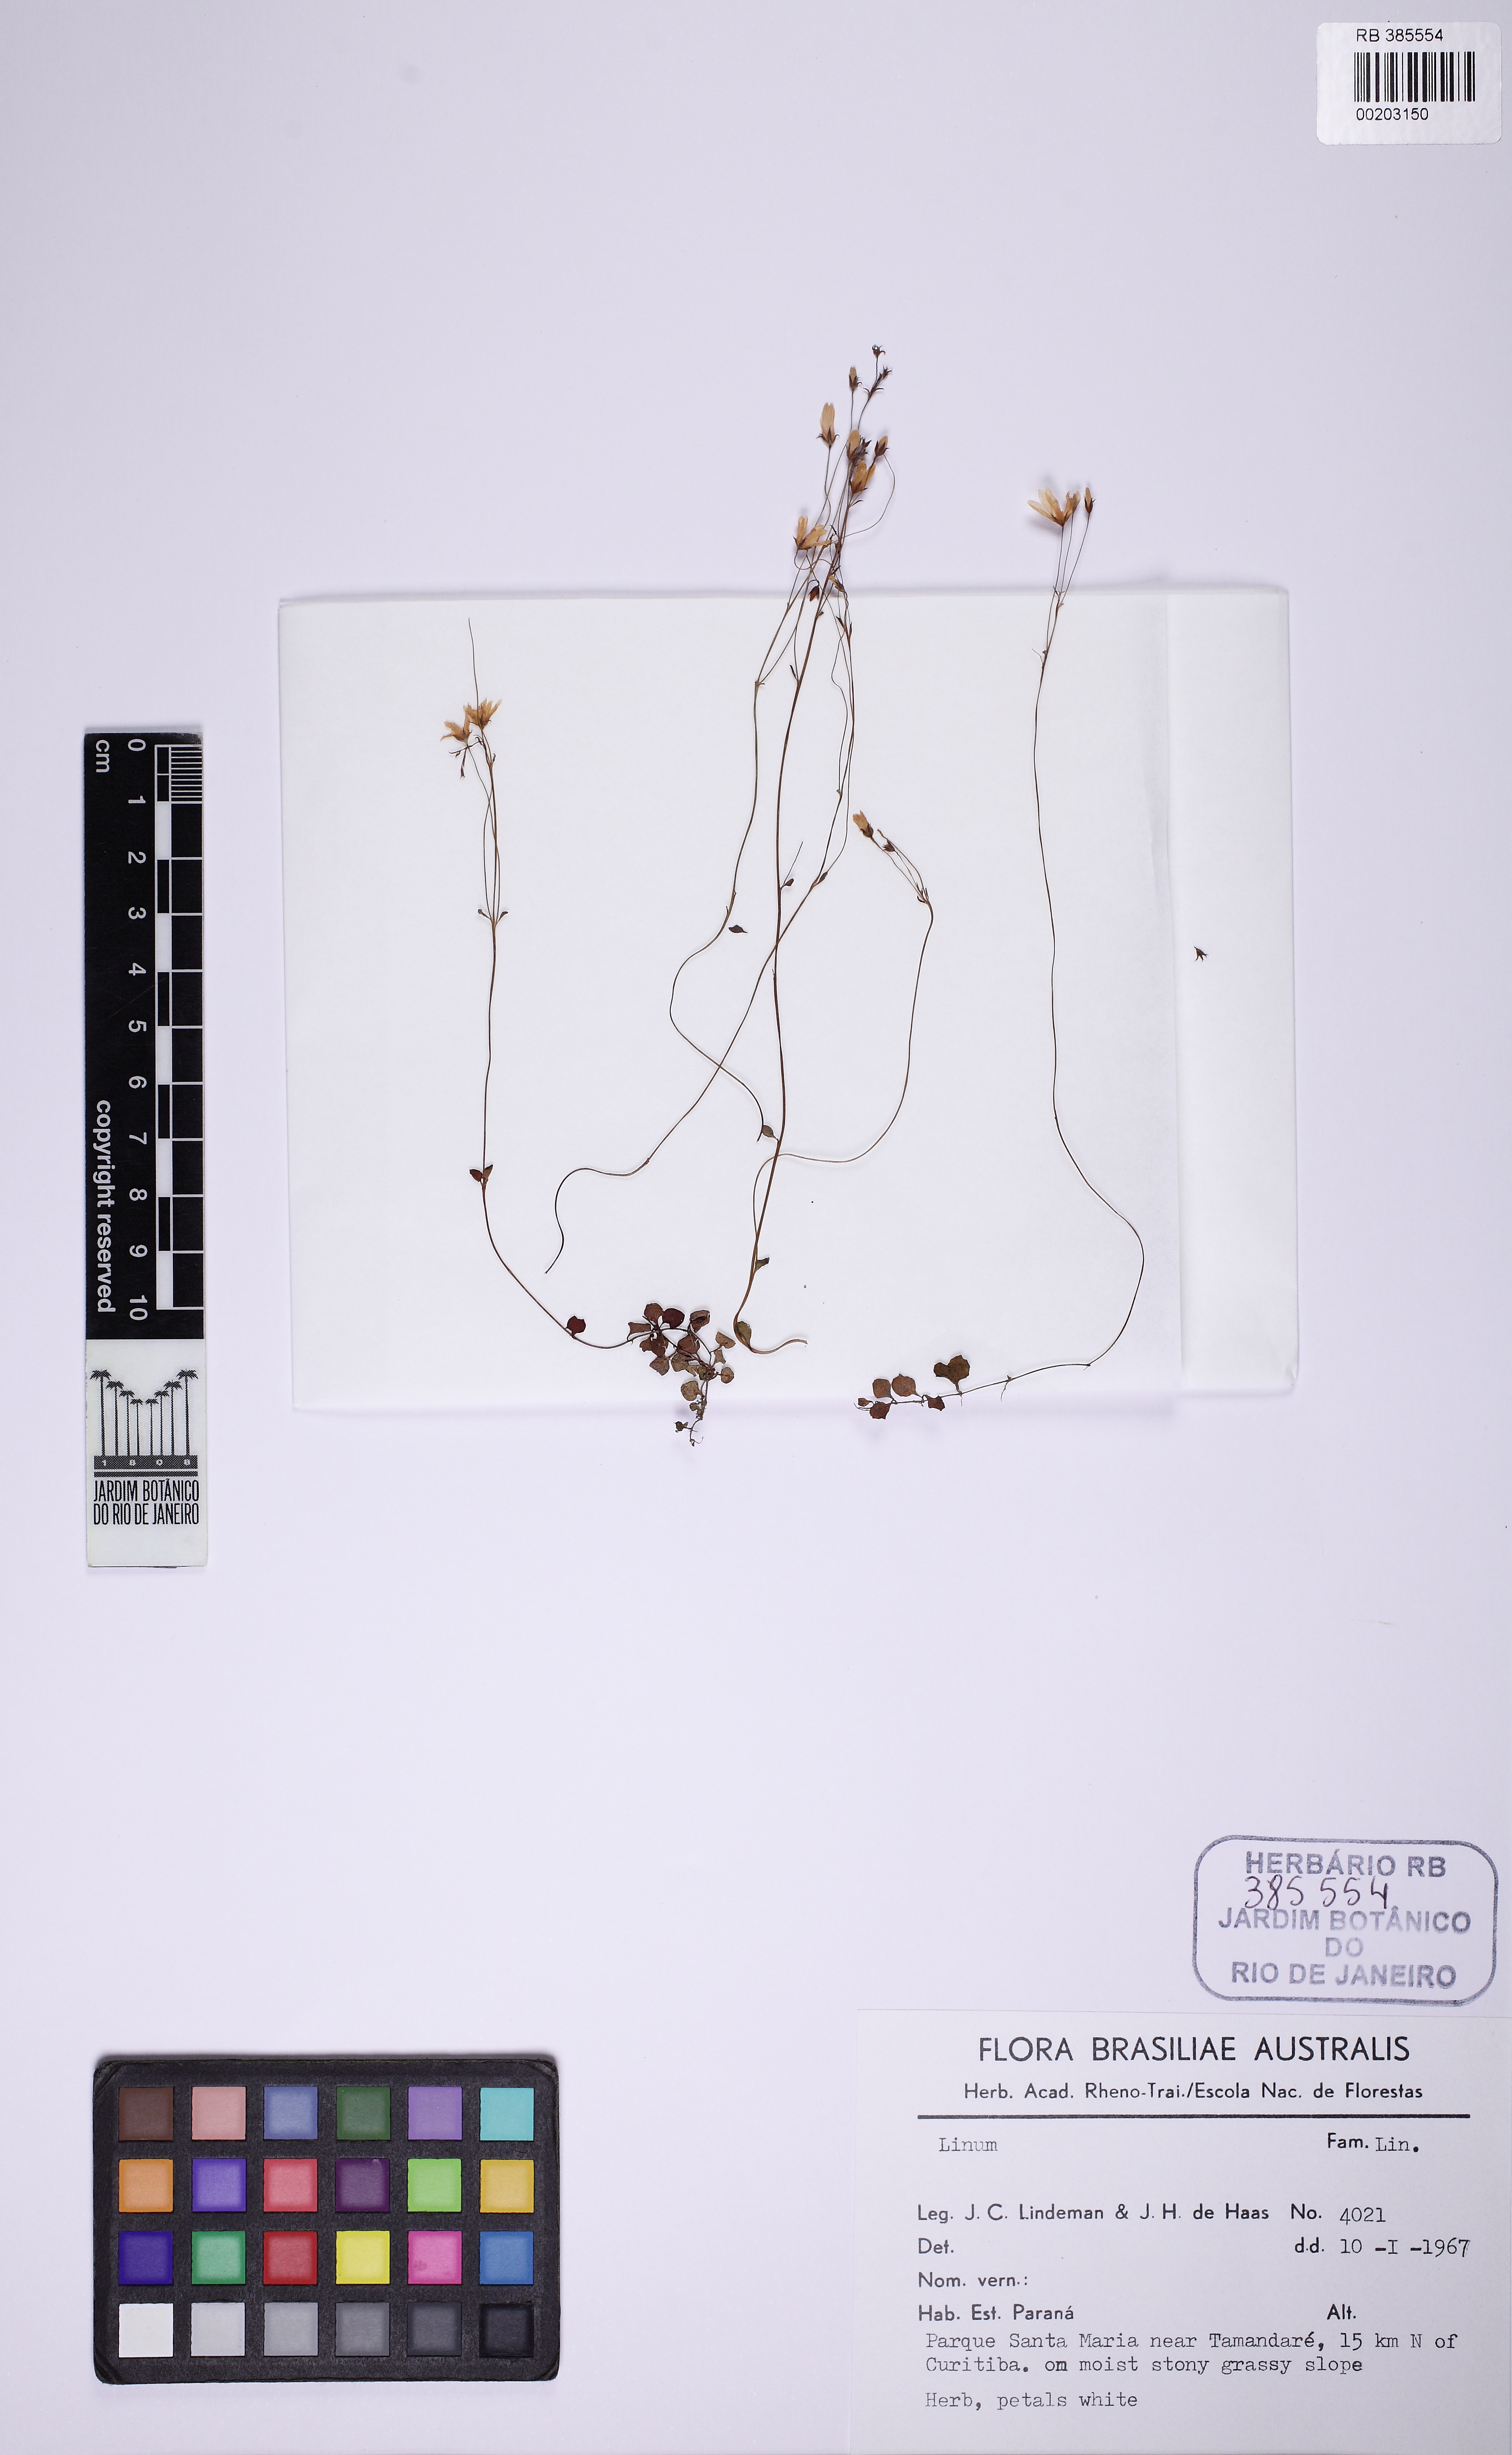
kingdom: Plantae
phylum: Tracheophyta
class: Magnoliopsida
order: Ericales
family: Primulaceae
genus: Lysimachia
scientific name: Lysimachia
